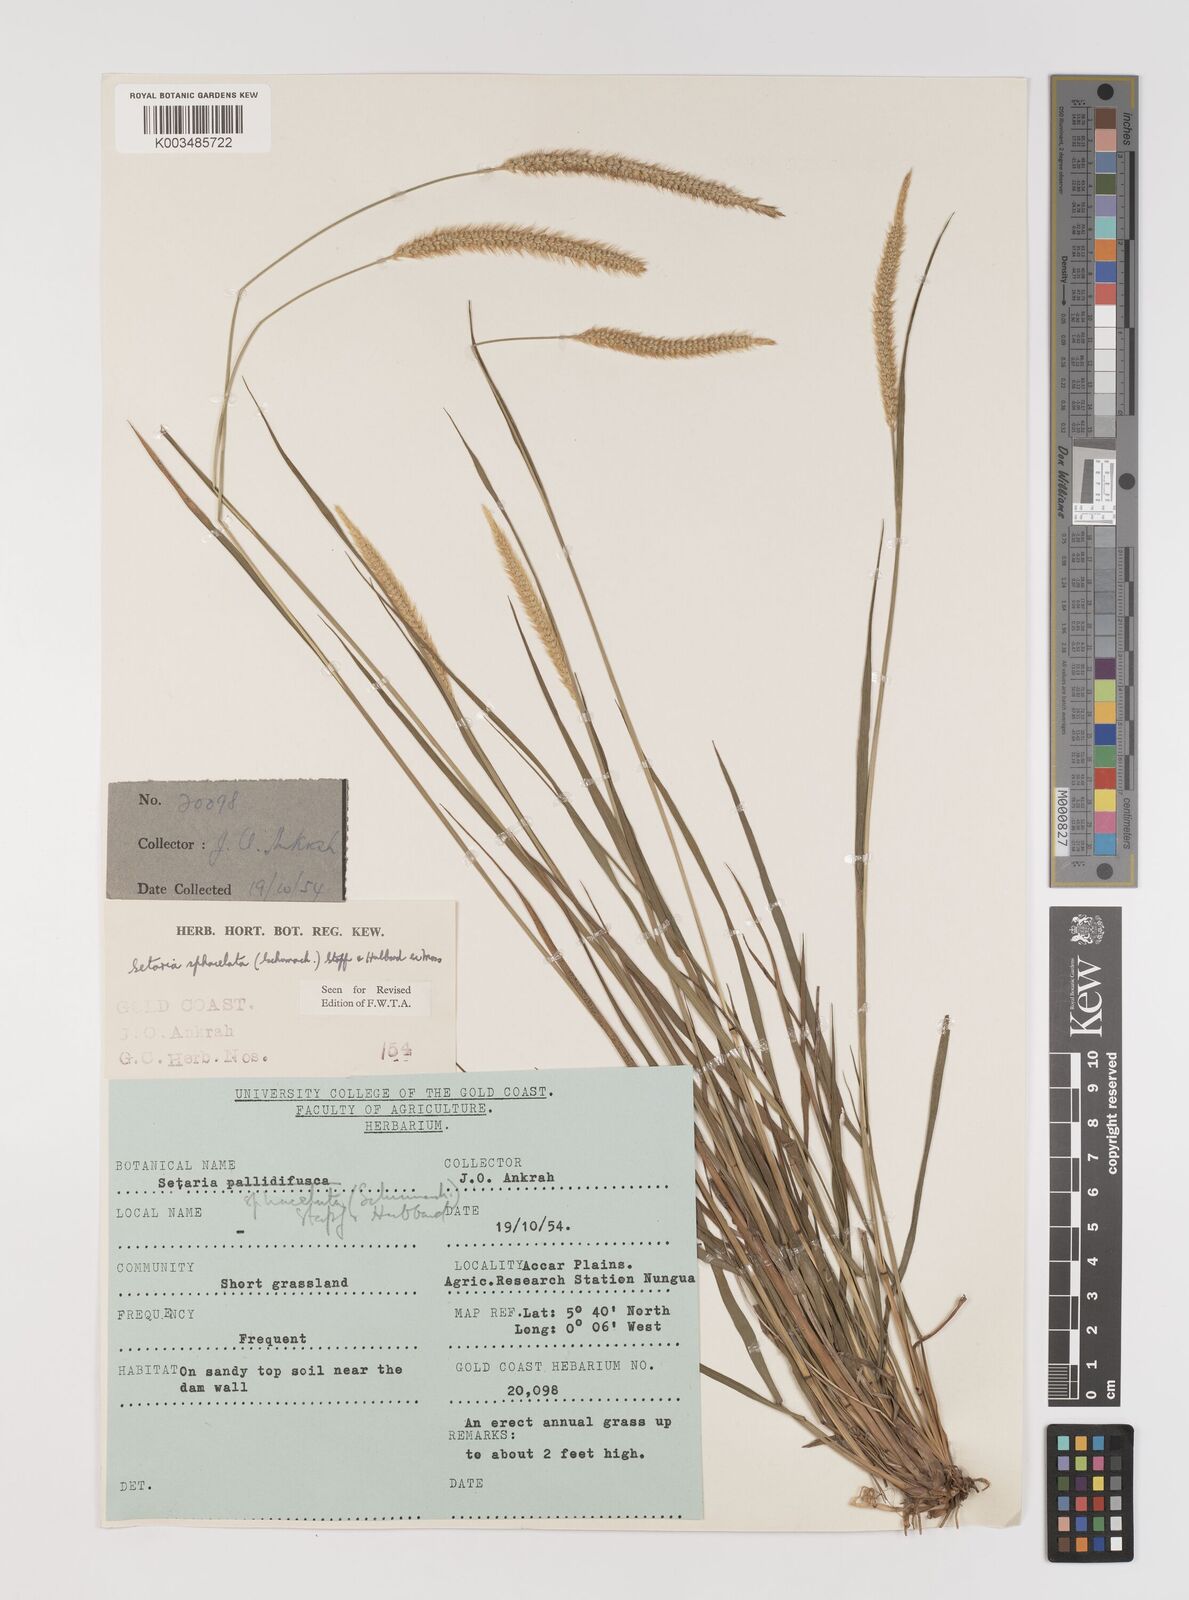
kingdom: Plantae
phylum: Tracheophyta
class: Liliopsida
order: Poales
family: Poaceae
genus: Setaria
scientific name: Setaria sphacelata
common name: African bristlegrass
